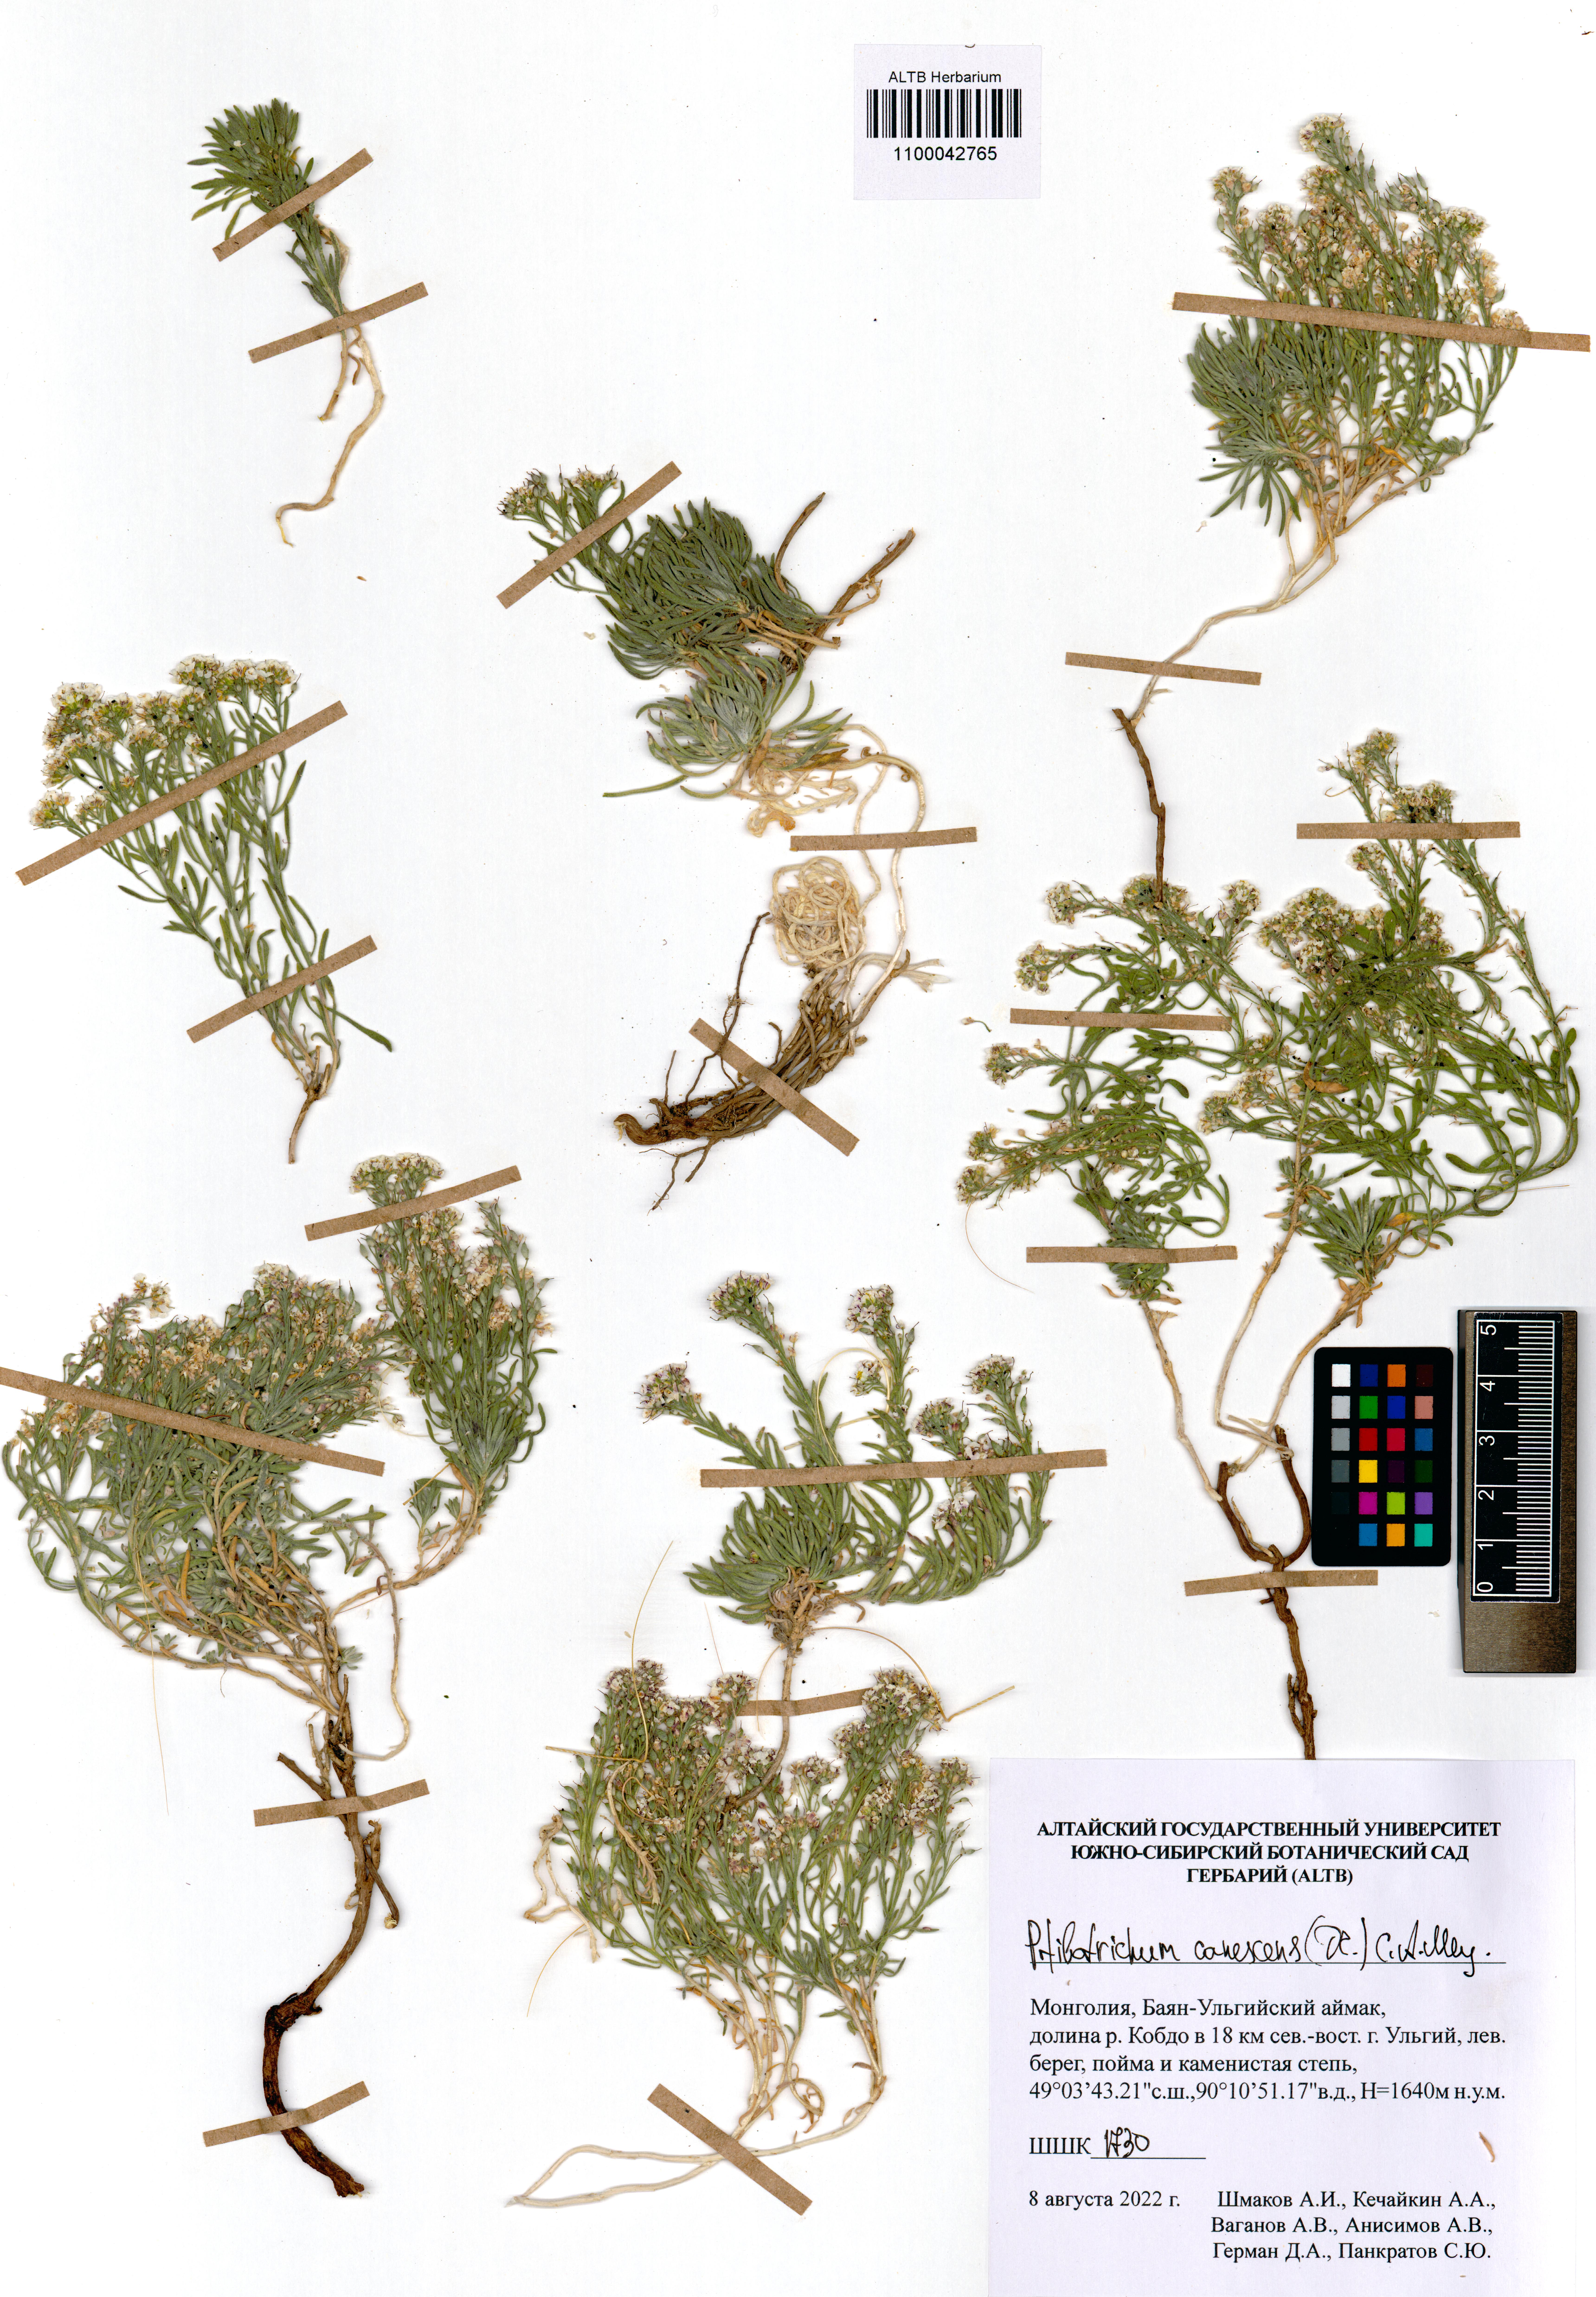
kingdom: Plantae
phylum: Tracheophyta
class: Magnoliopsida
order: Brassicales
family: Brassicaceae
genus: Stevenia
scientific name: Stevenia canescens
